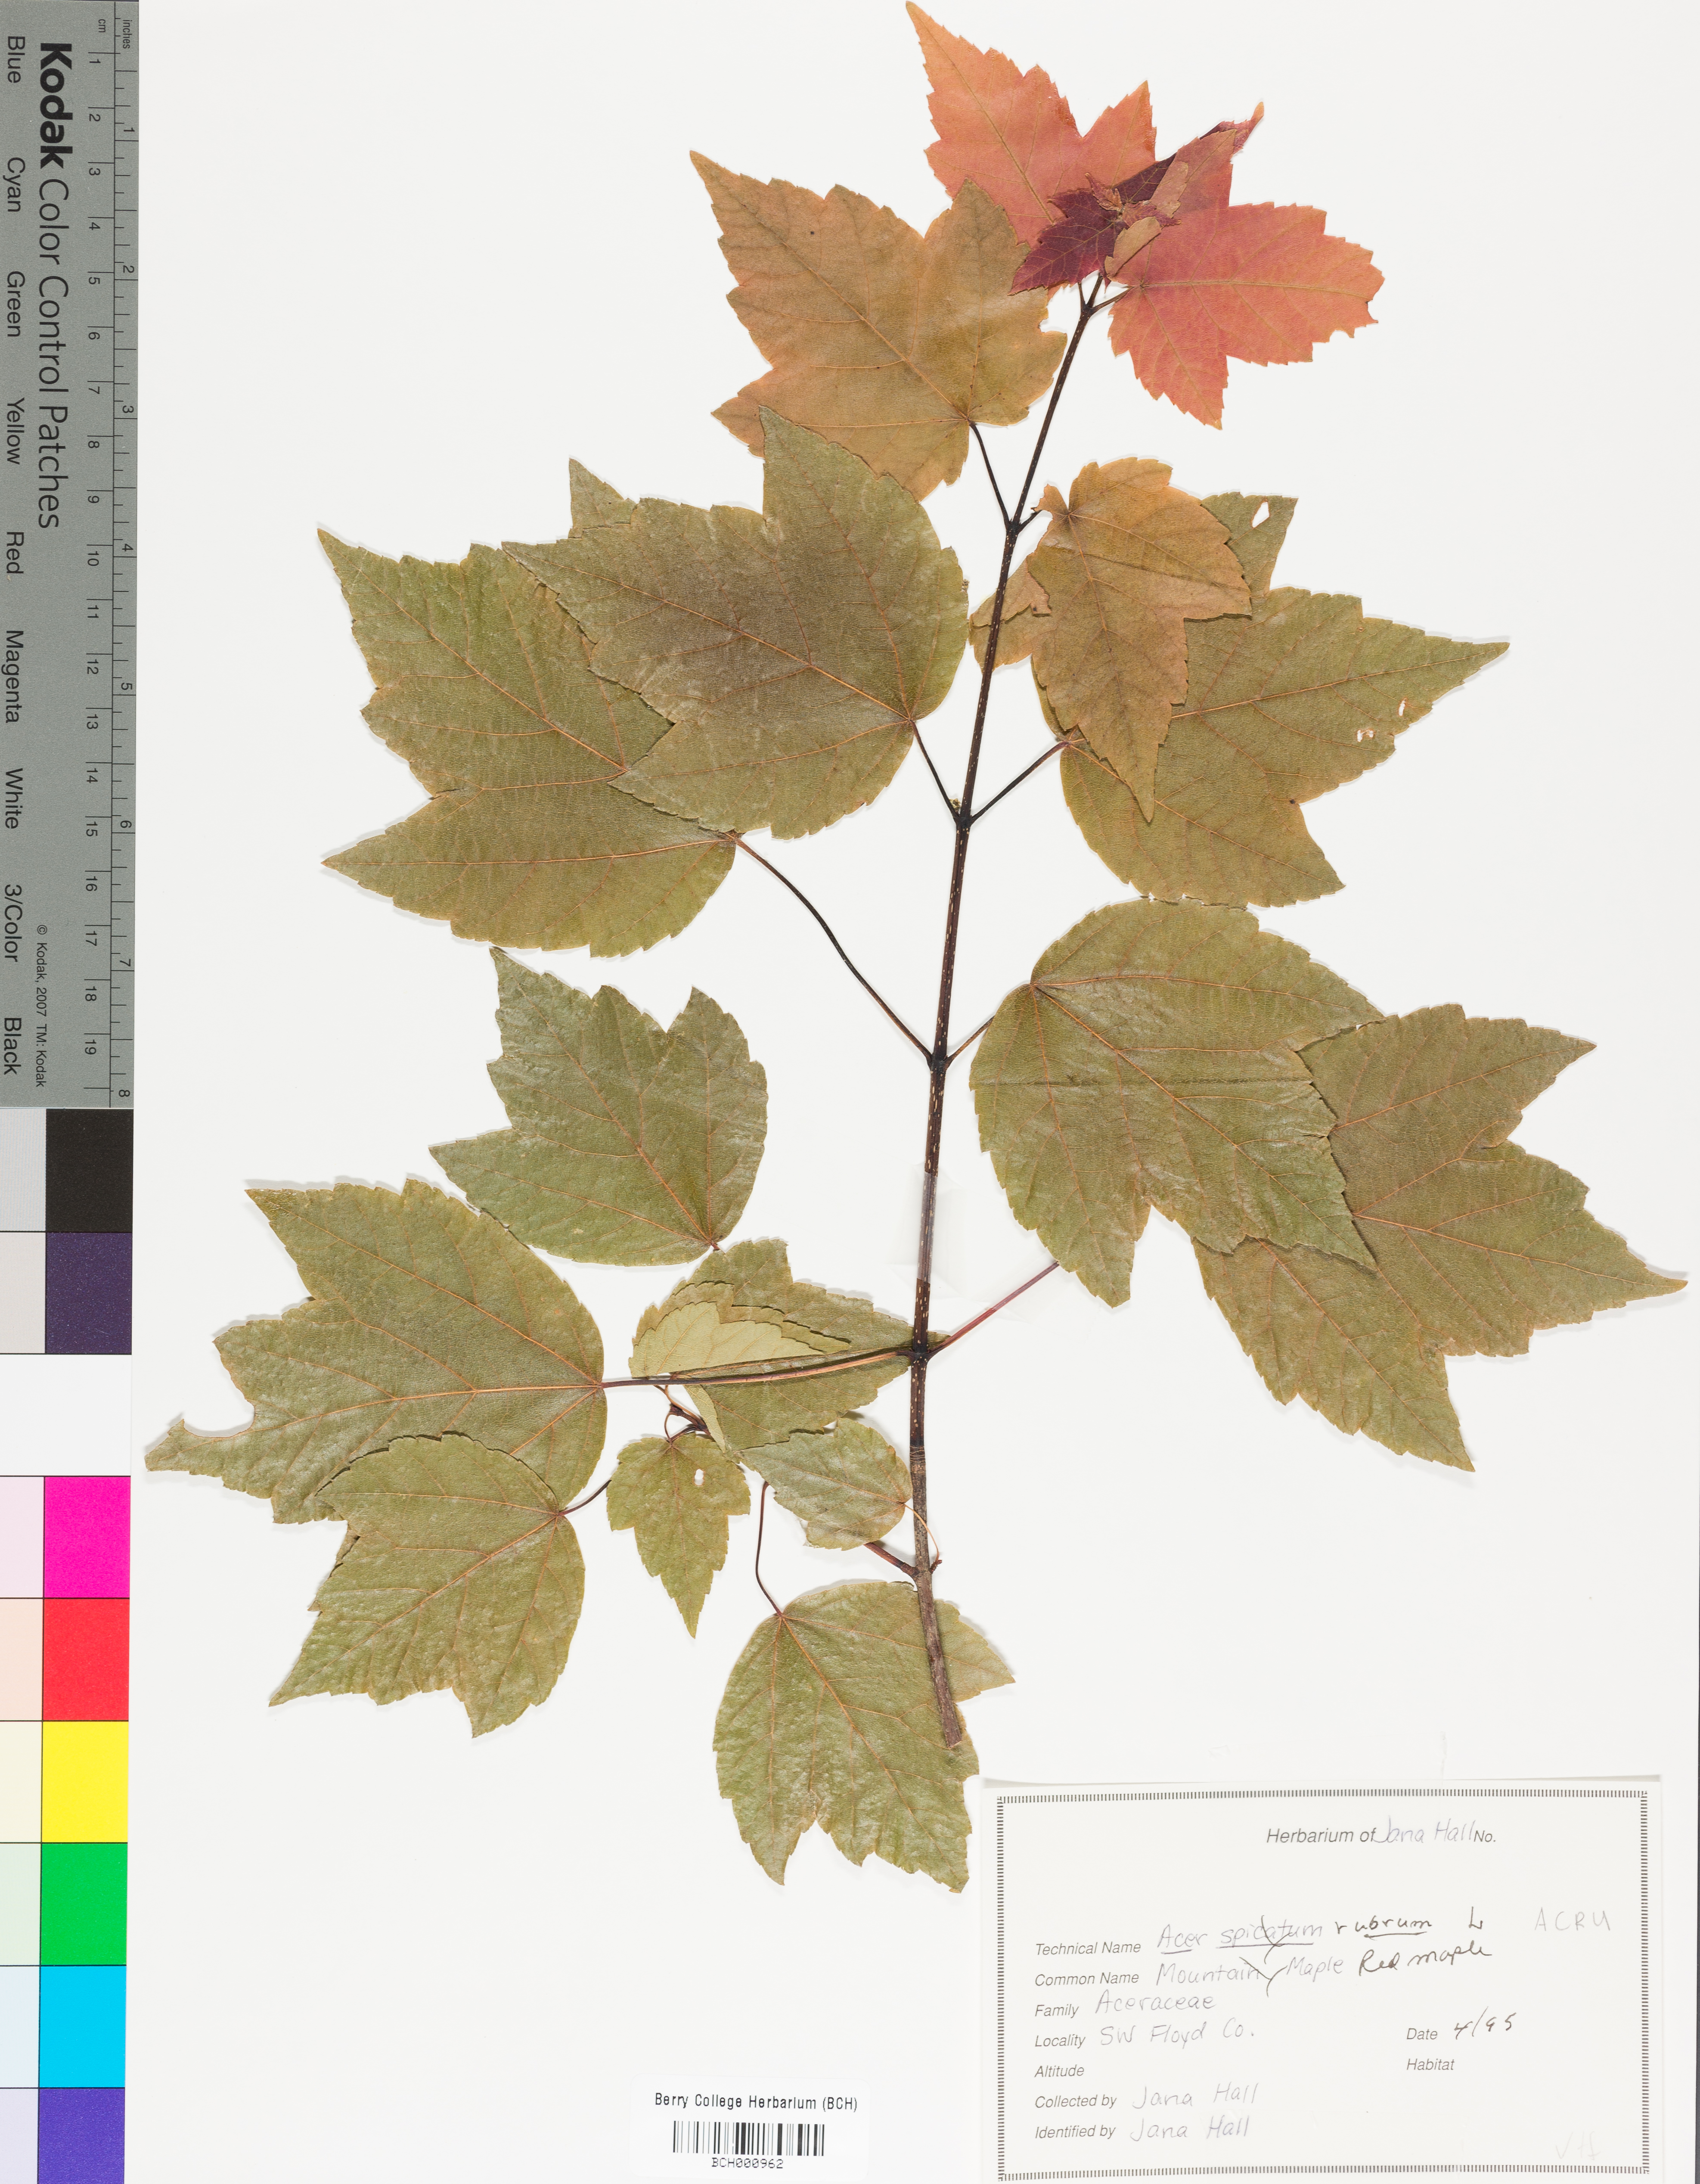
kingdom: Plantae
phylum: Tracheophyta
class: Magnoliopsida
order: Sapindales
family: Sapindaceae
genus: Acer
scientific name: Acer rubrum
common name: Red maple
